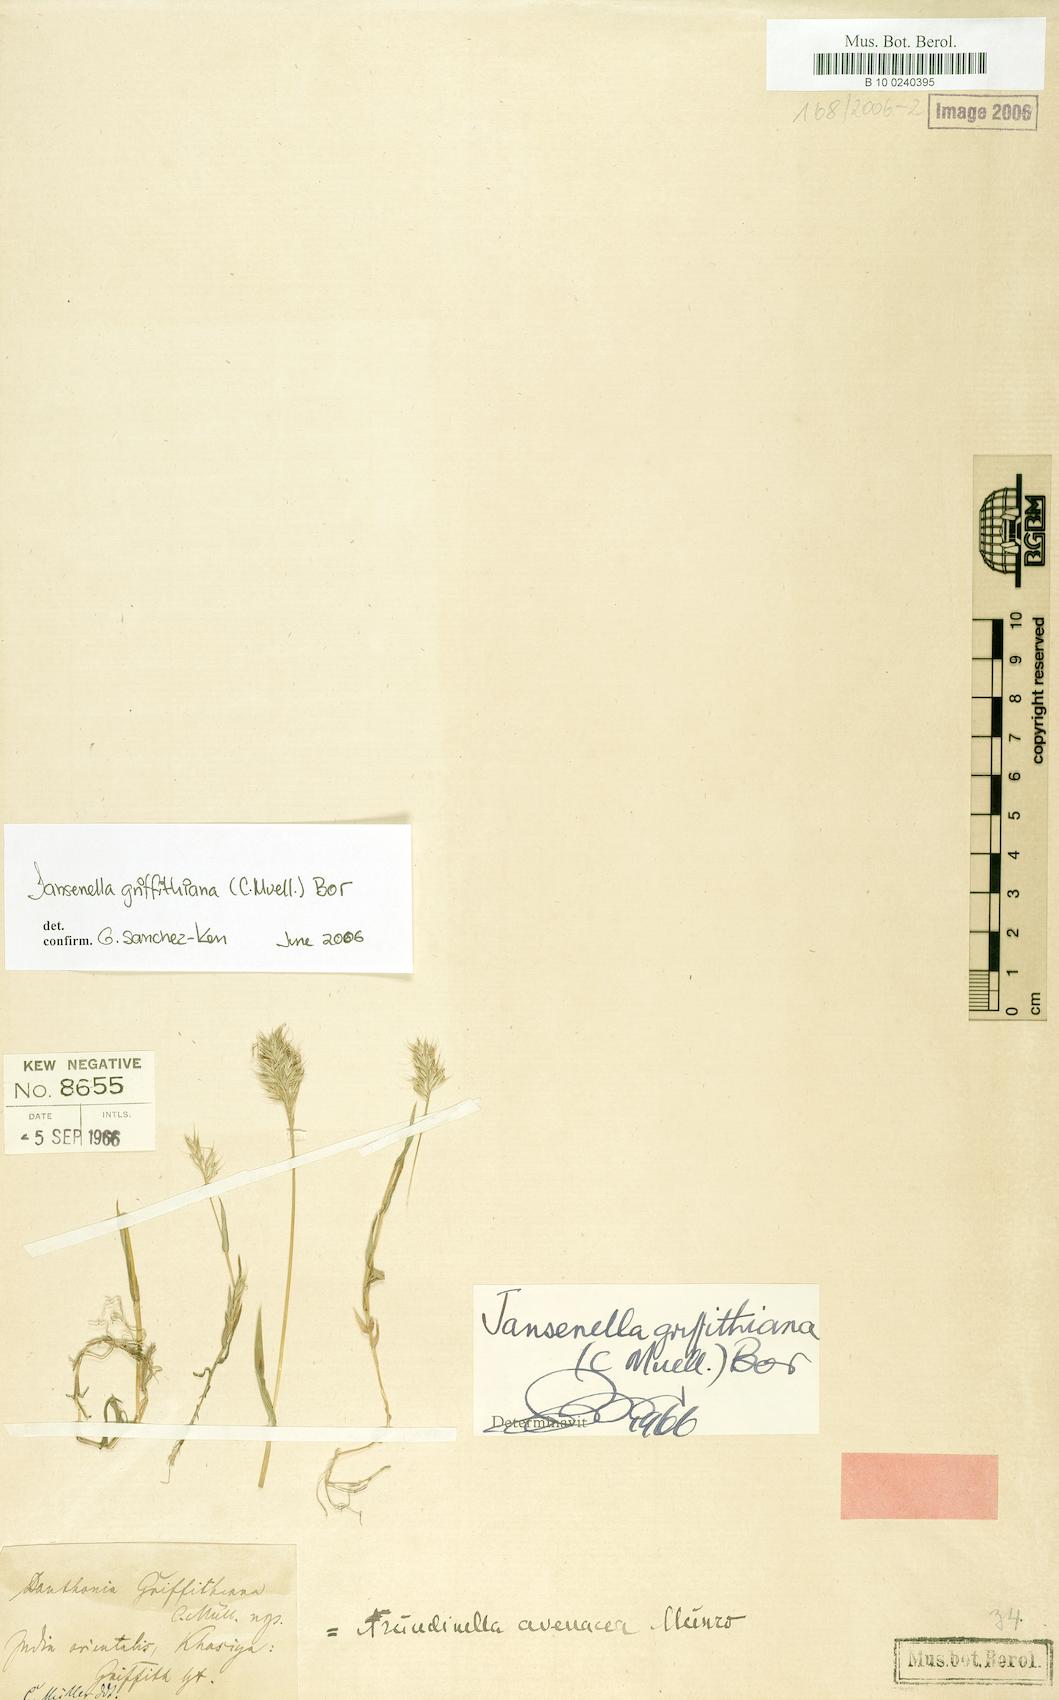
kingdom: Plantae
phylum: Tracheophyta
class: Liliopsida
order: Poales
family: Poaceae
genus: Jansenella
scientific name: Jansenella griffithiana
